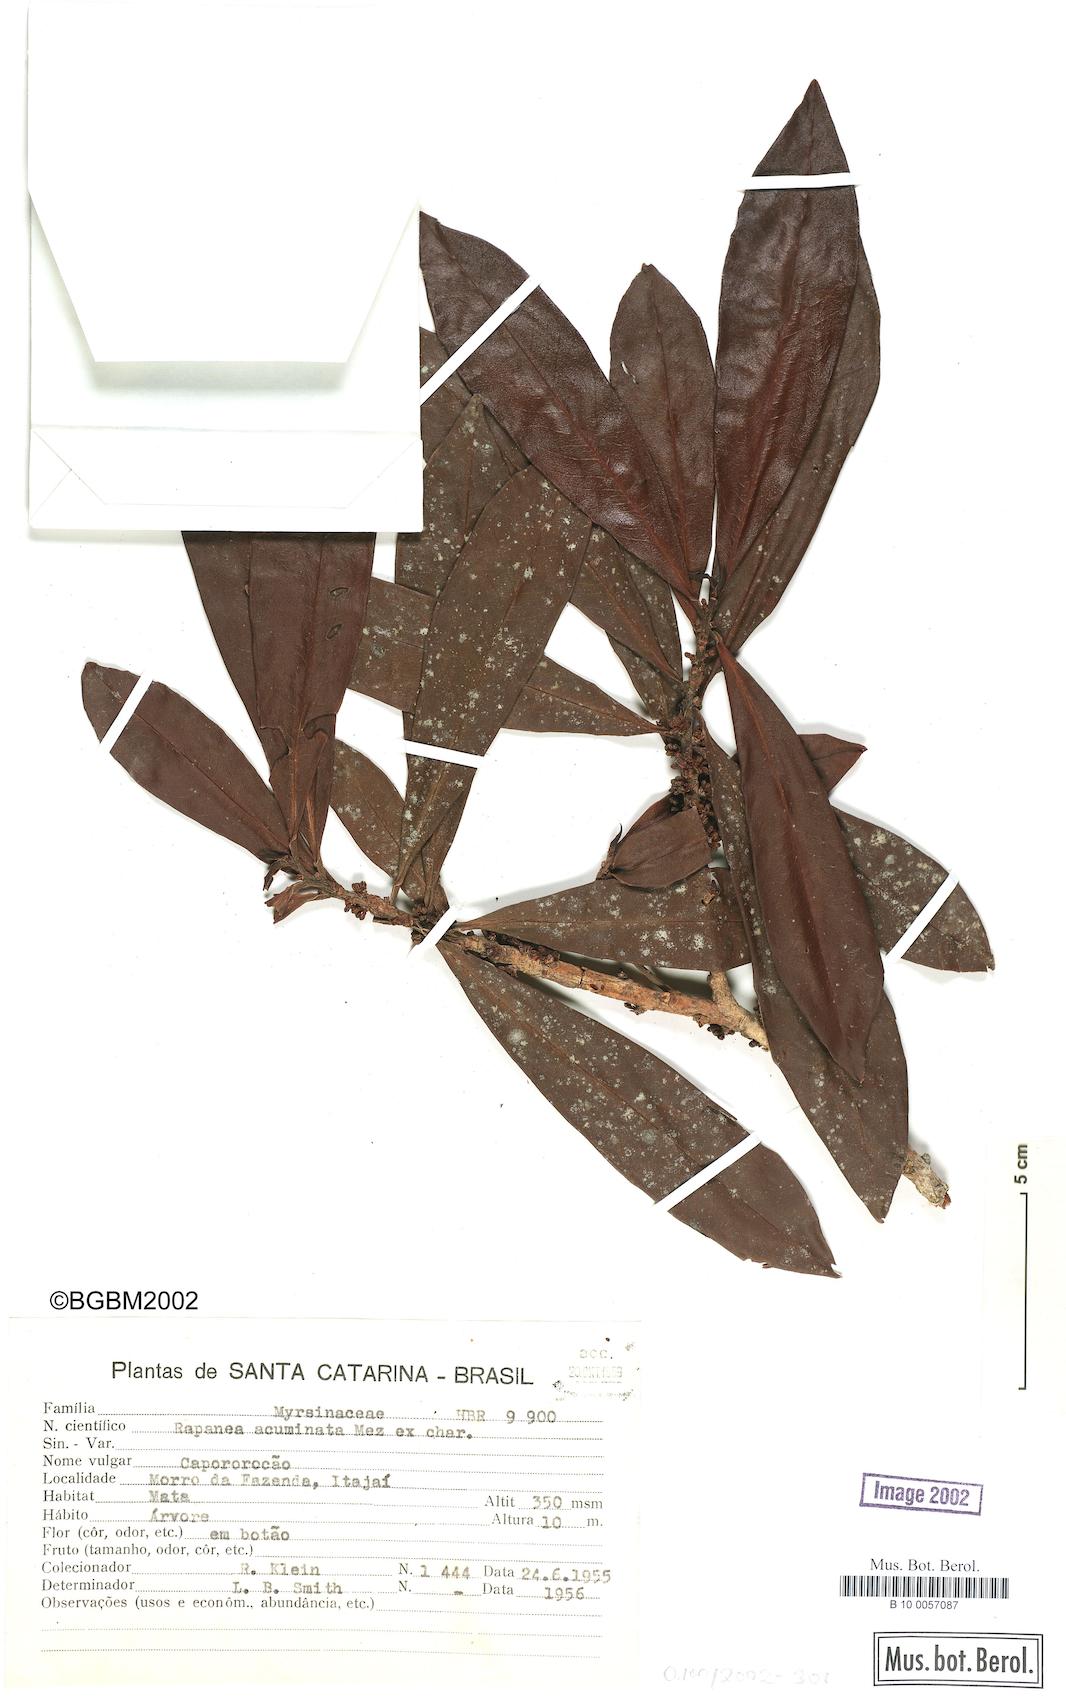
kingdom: Plantae
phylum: Tracheophyta
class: Magnoliopsida
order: Ericales
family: Primulaceae
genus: Myrsine
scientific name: Myrsine umbellata
